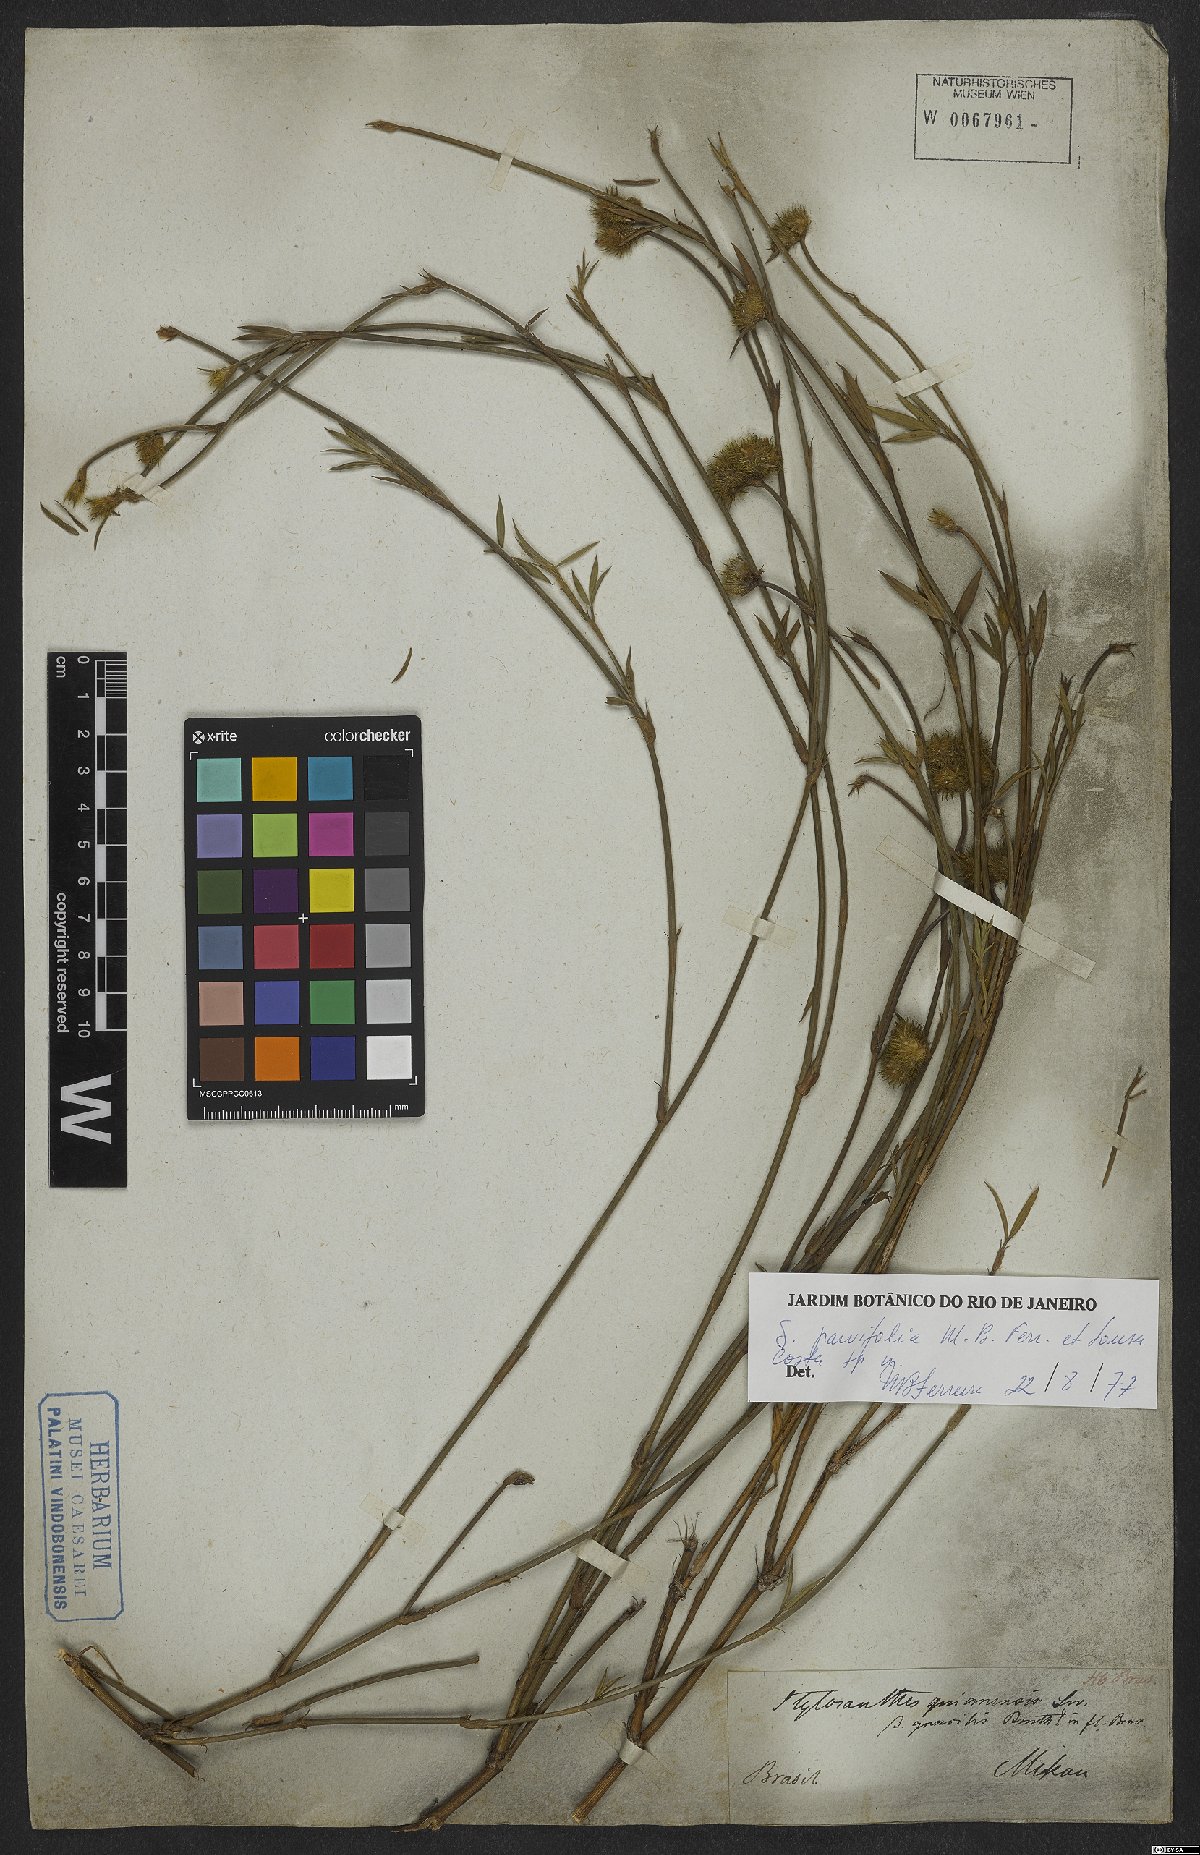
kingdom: Plantae
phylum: Tracheophyta
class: Magnoliopsida
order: Fabales
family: Fabaceae
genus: Stylosanthes
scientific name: Stylosanthes
